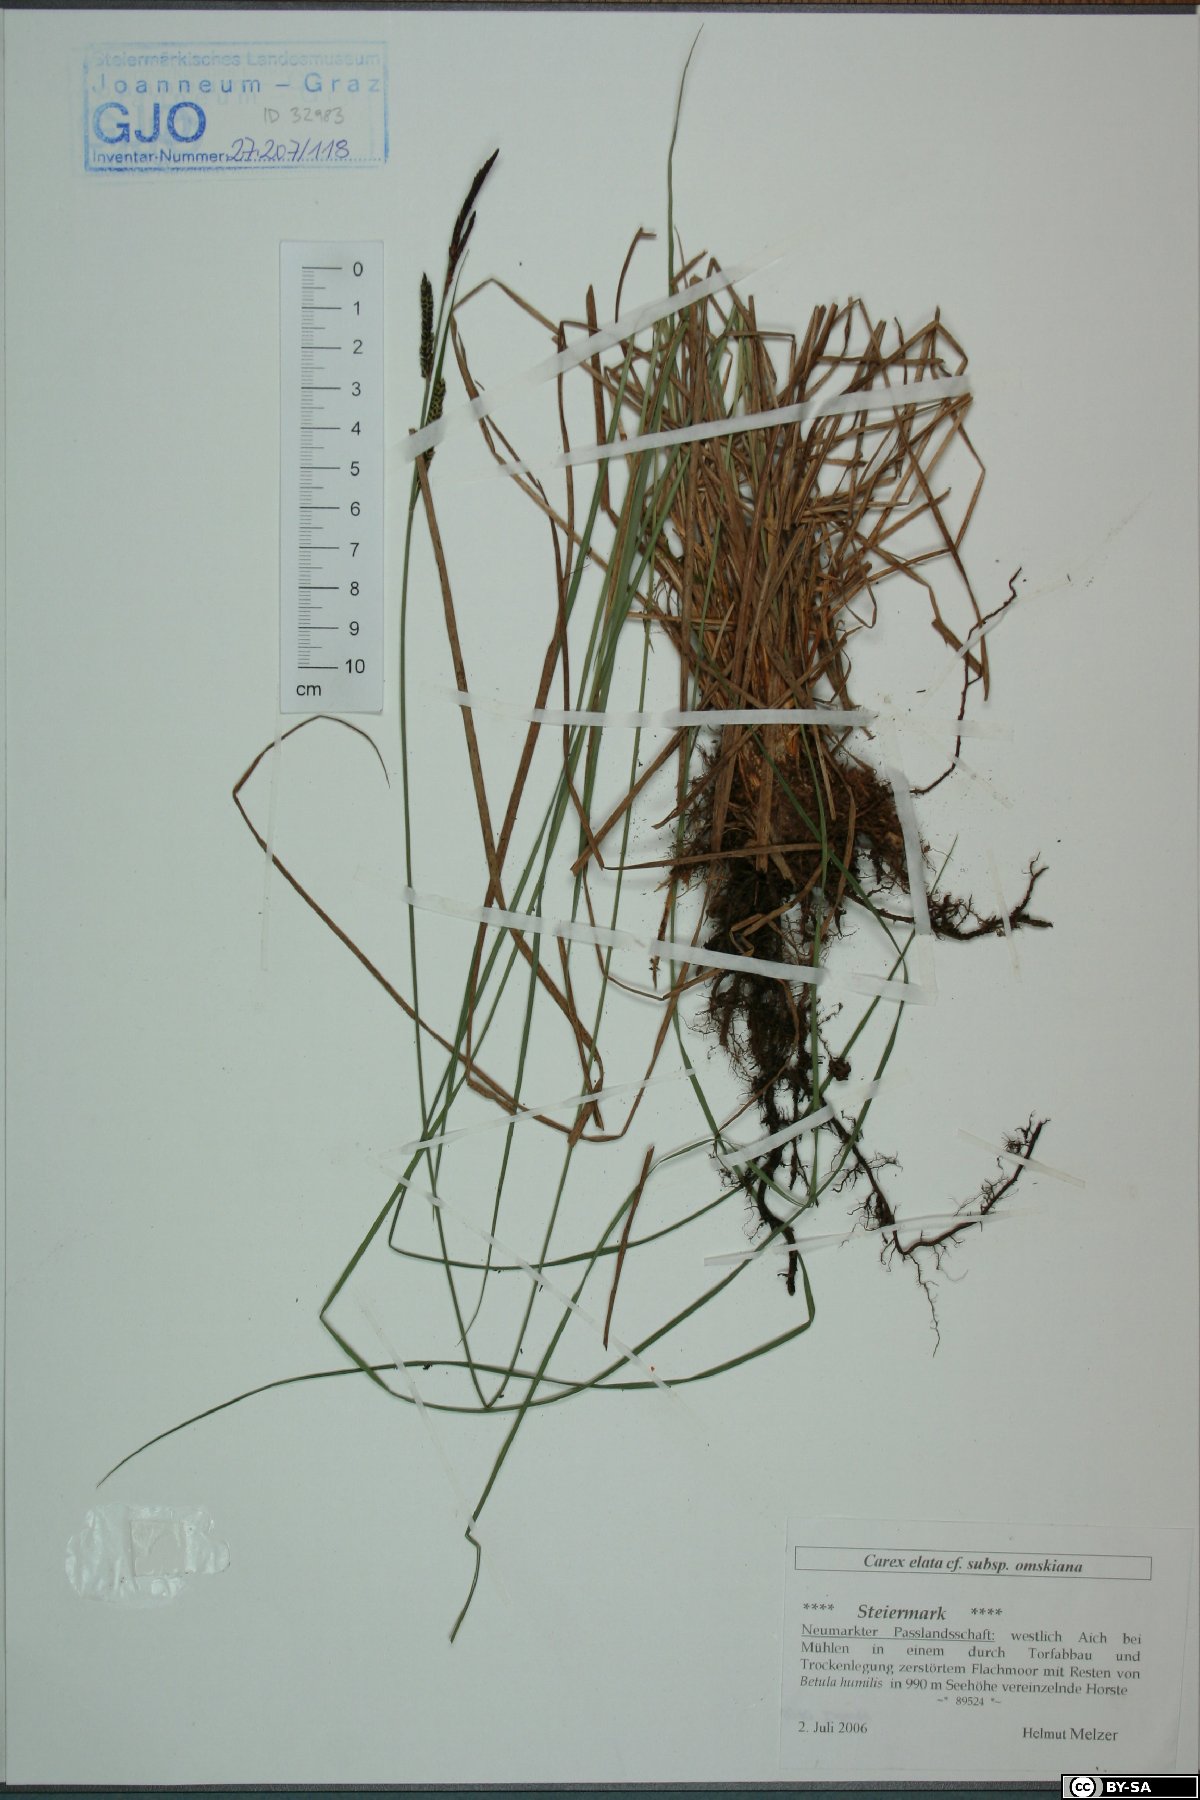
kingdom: Plantae
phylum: Tracheophyta
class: Liliopsida
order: Poales
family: Cyperaceae
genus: Carex
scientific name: Carex elata
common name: Tufted sedge
